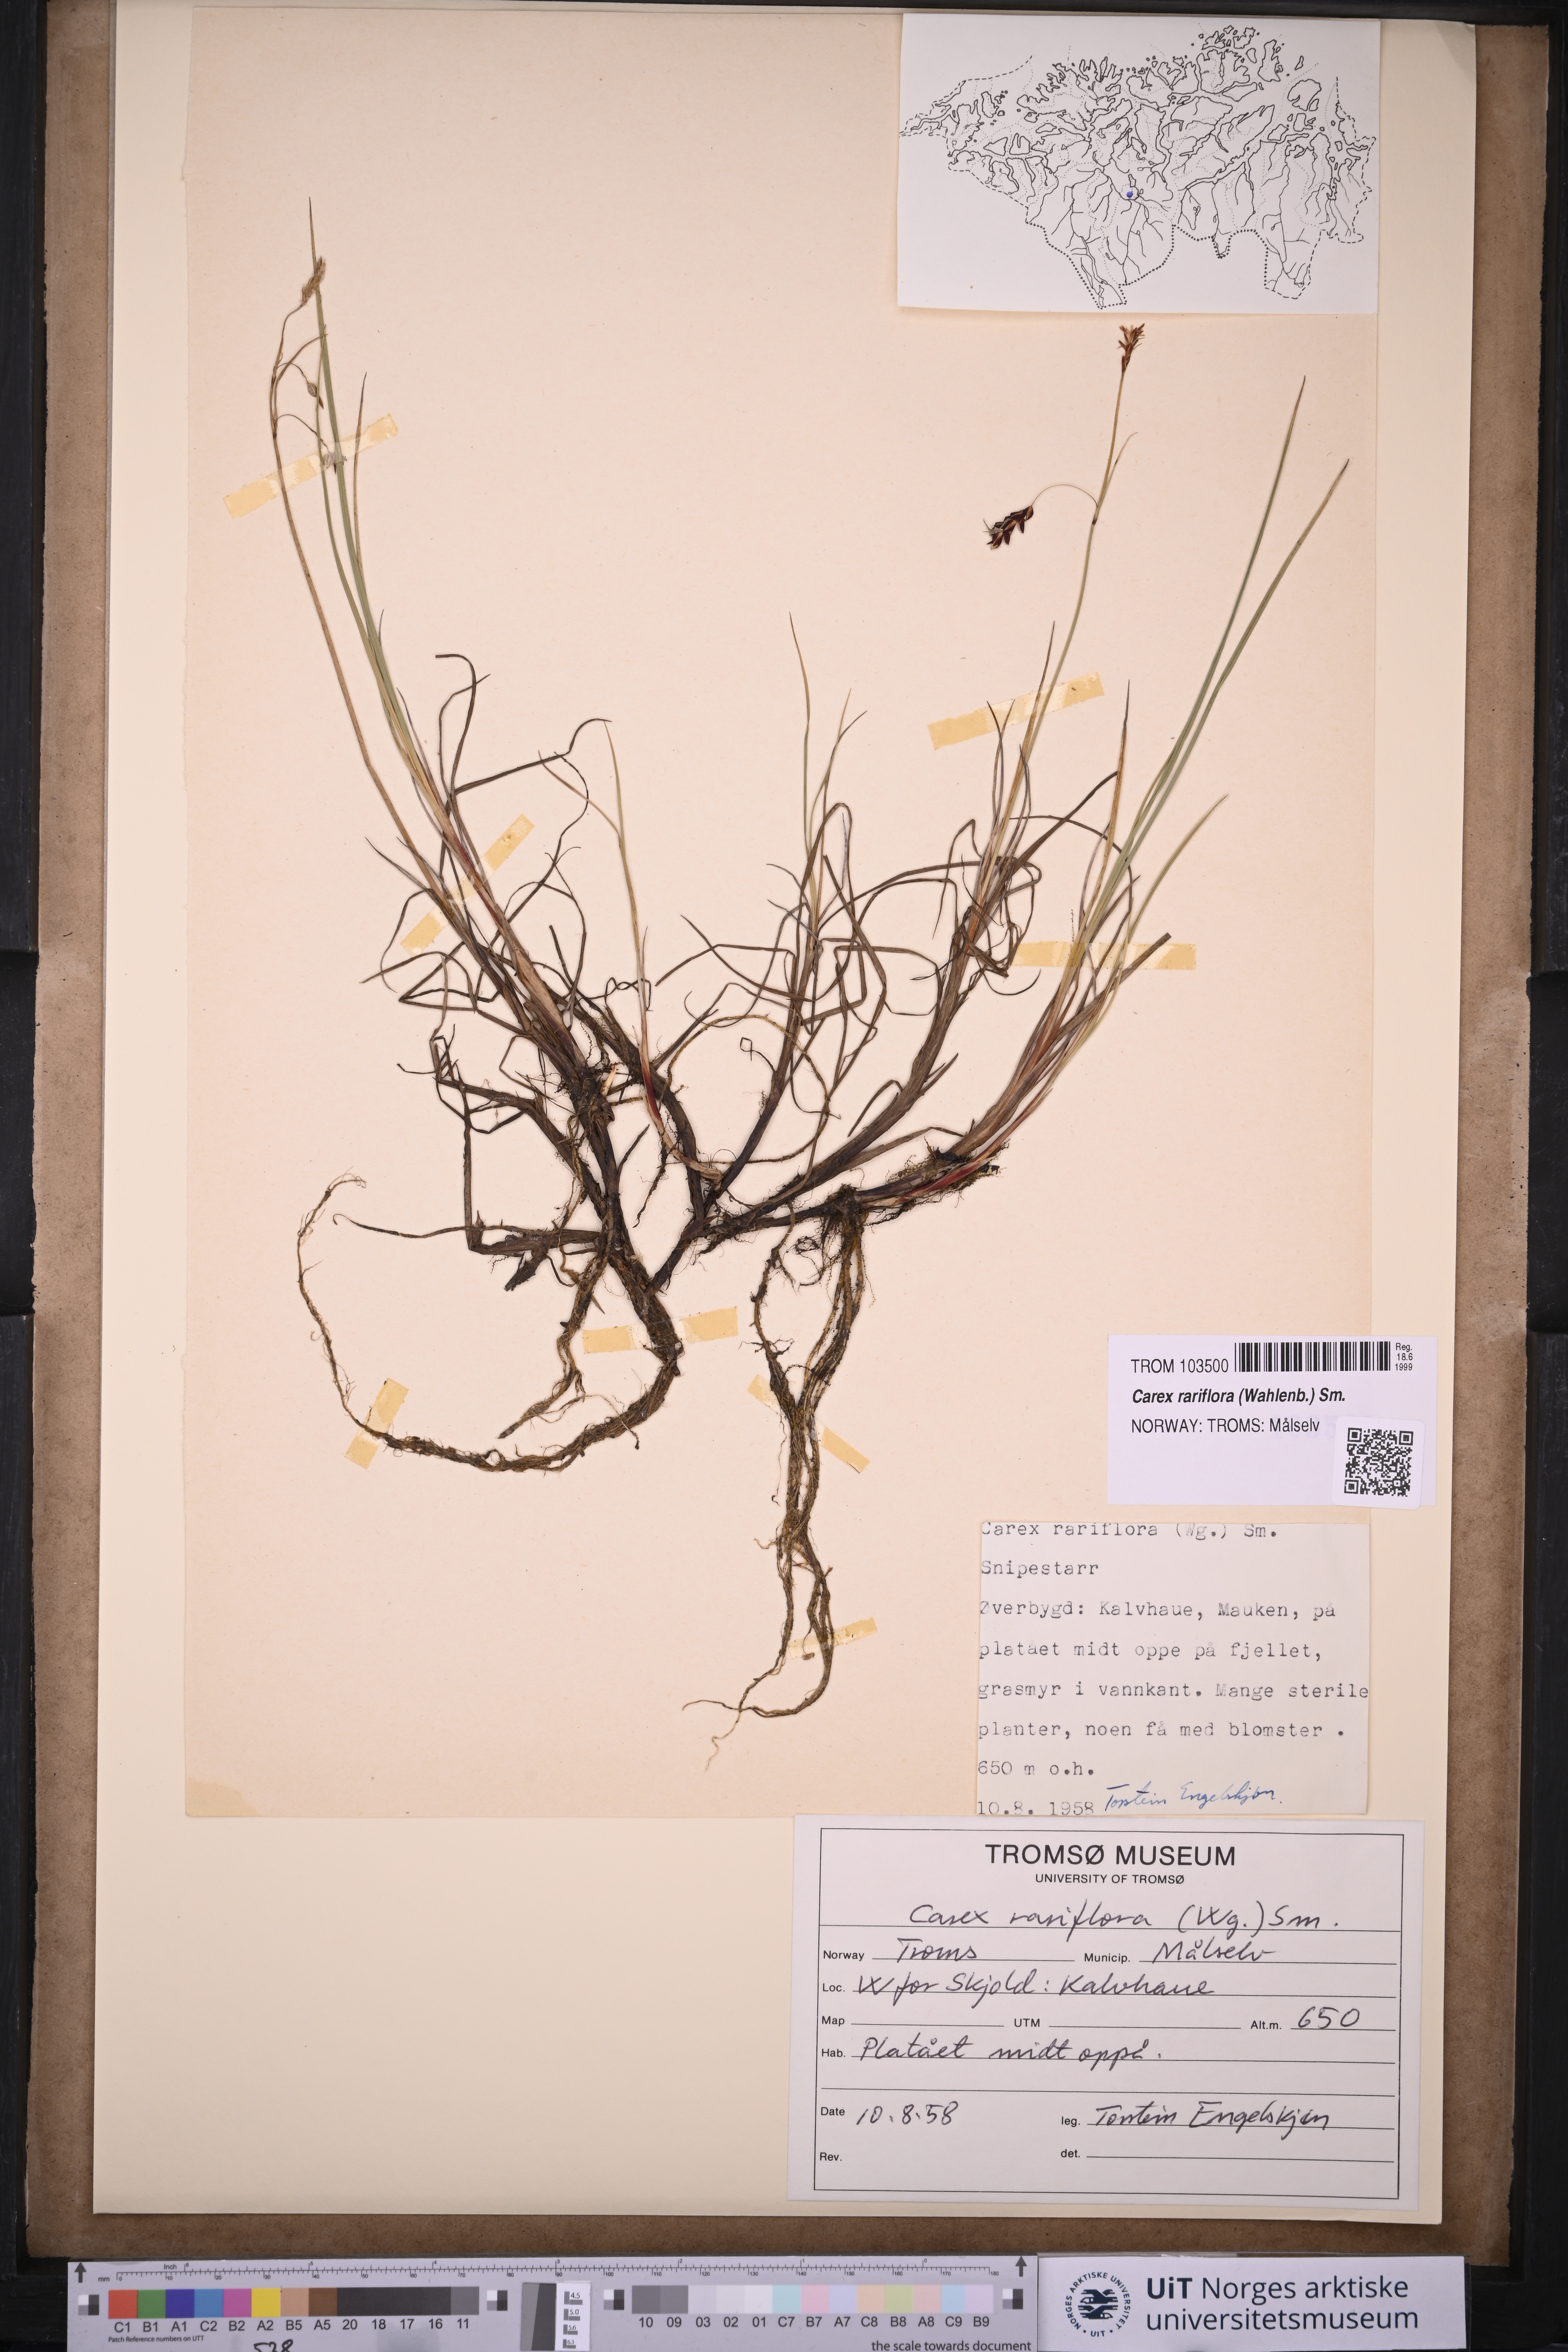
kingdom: Plantae
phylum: Tracheophyta
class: Liliopsida
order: Poales
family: Cyperaceae
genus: Carex
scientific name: Carex rariflora
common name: Loose-flowered alpine sedge
